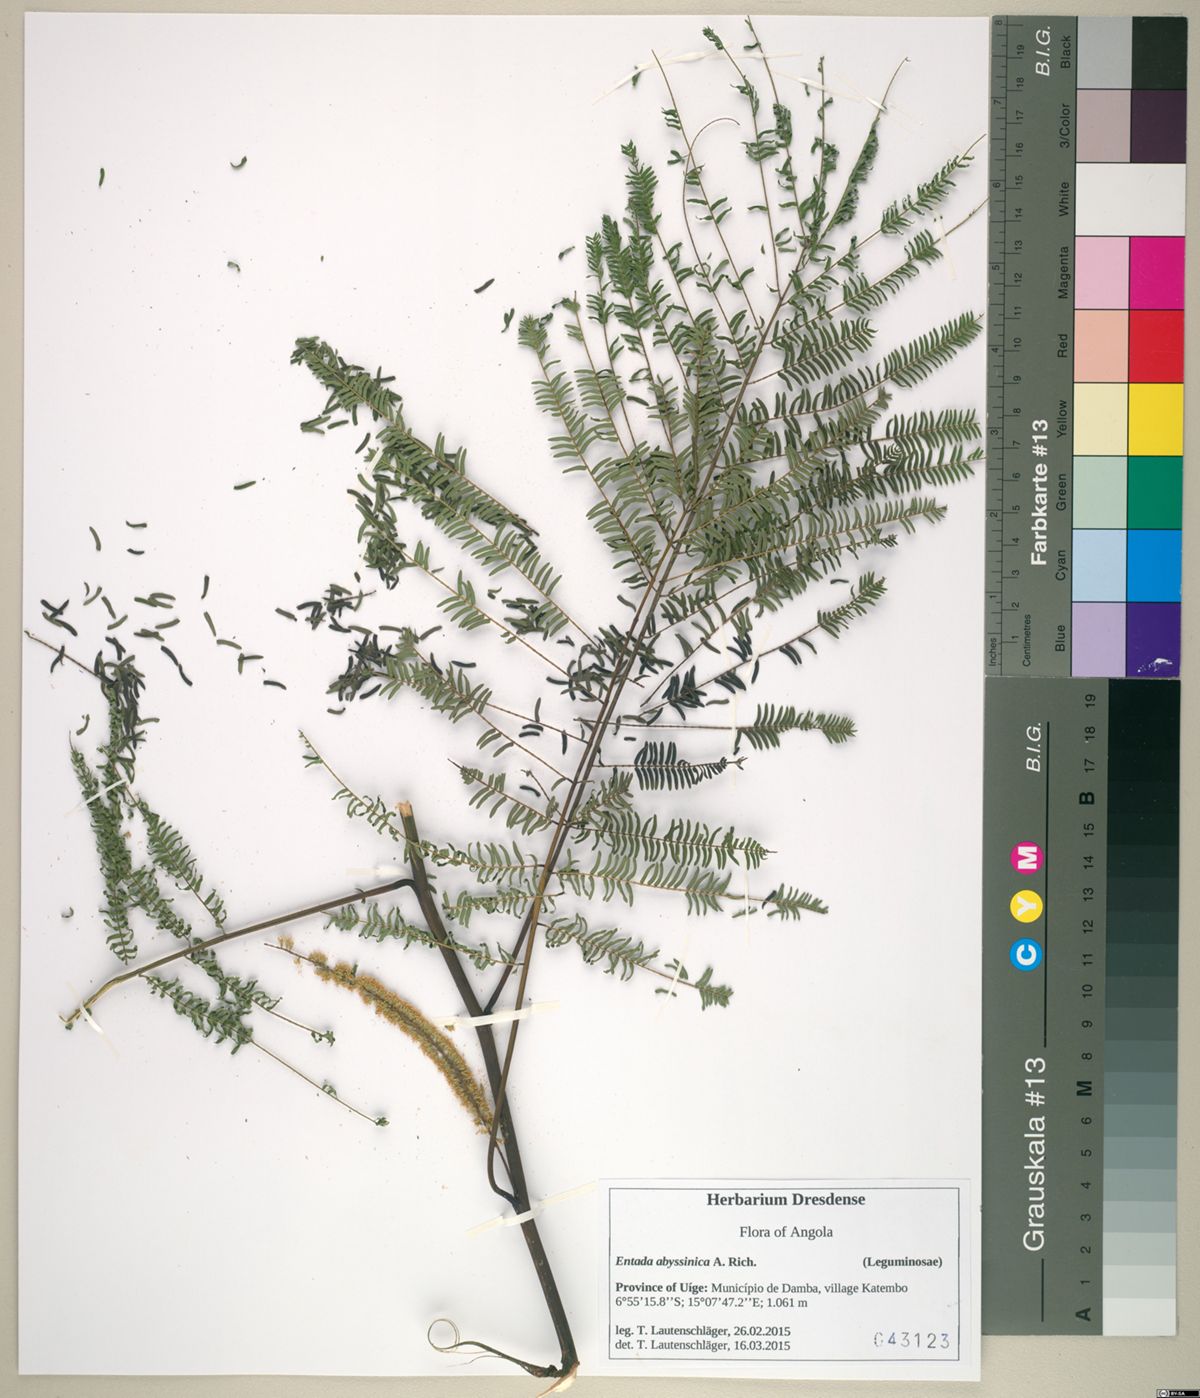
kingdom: Plantae
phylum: Tracheophyta
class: Magnoliopsida
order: Fabales
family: Fabaceae
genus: Entada
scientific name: Entada abyssinica
